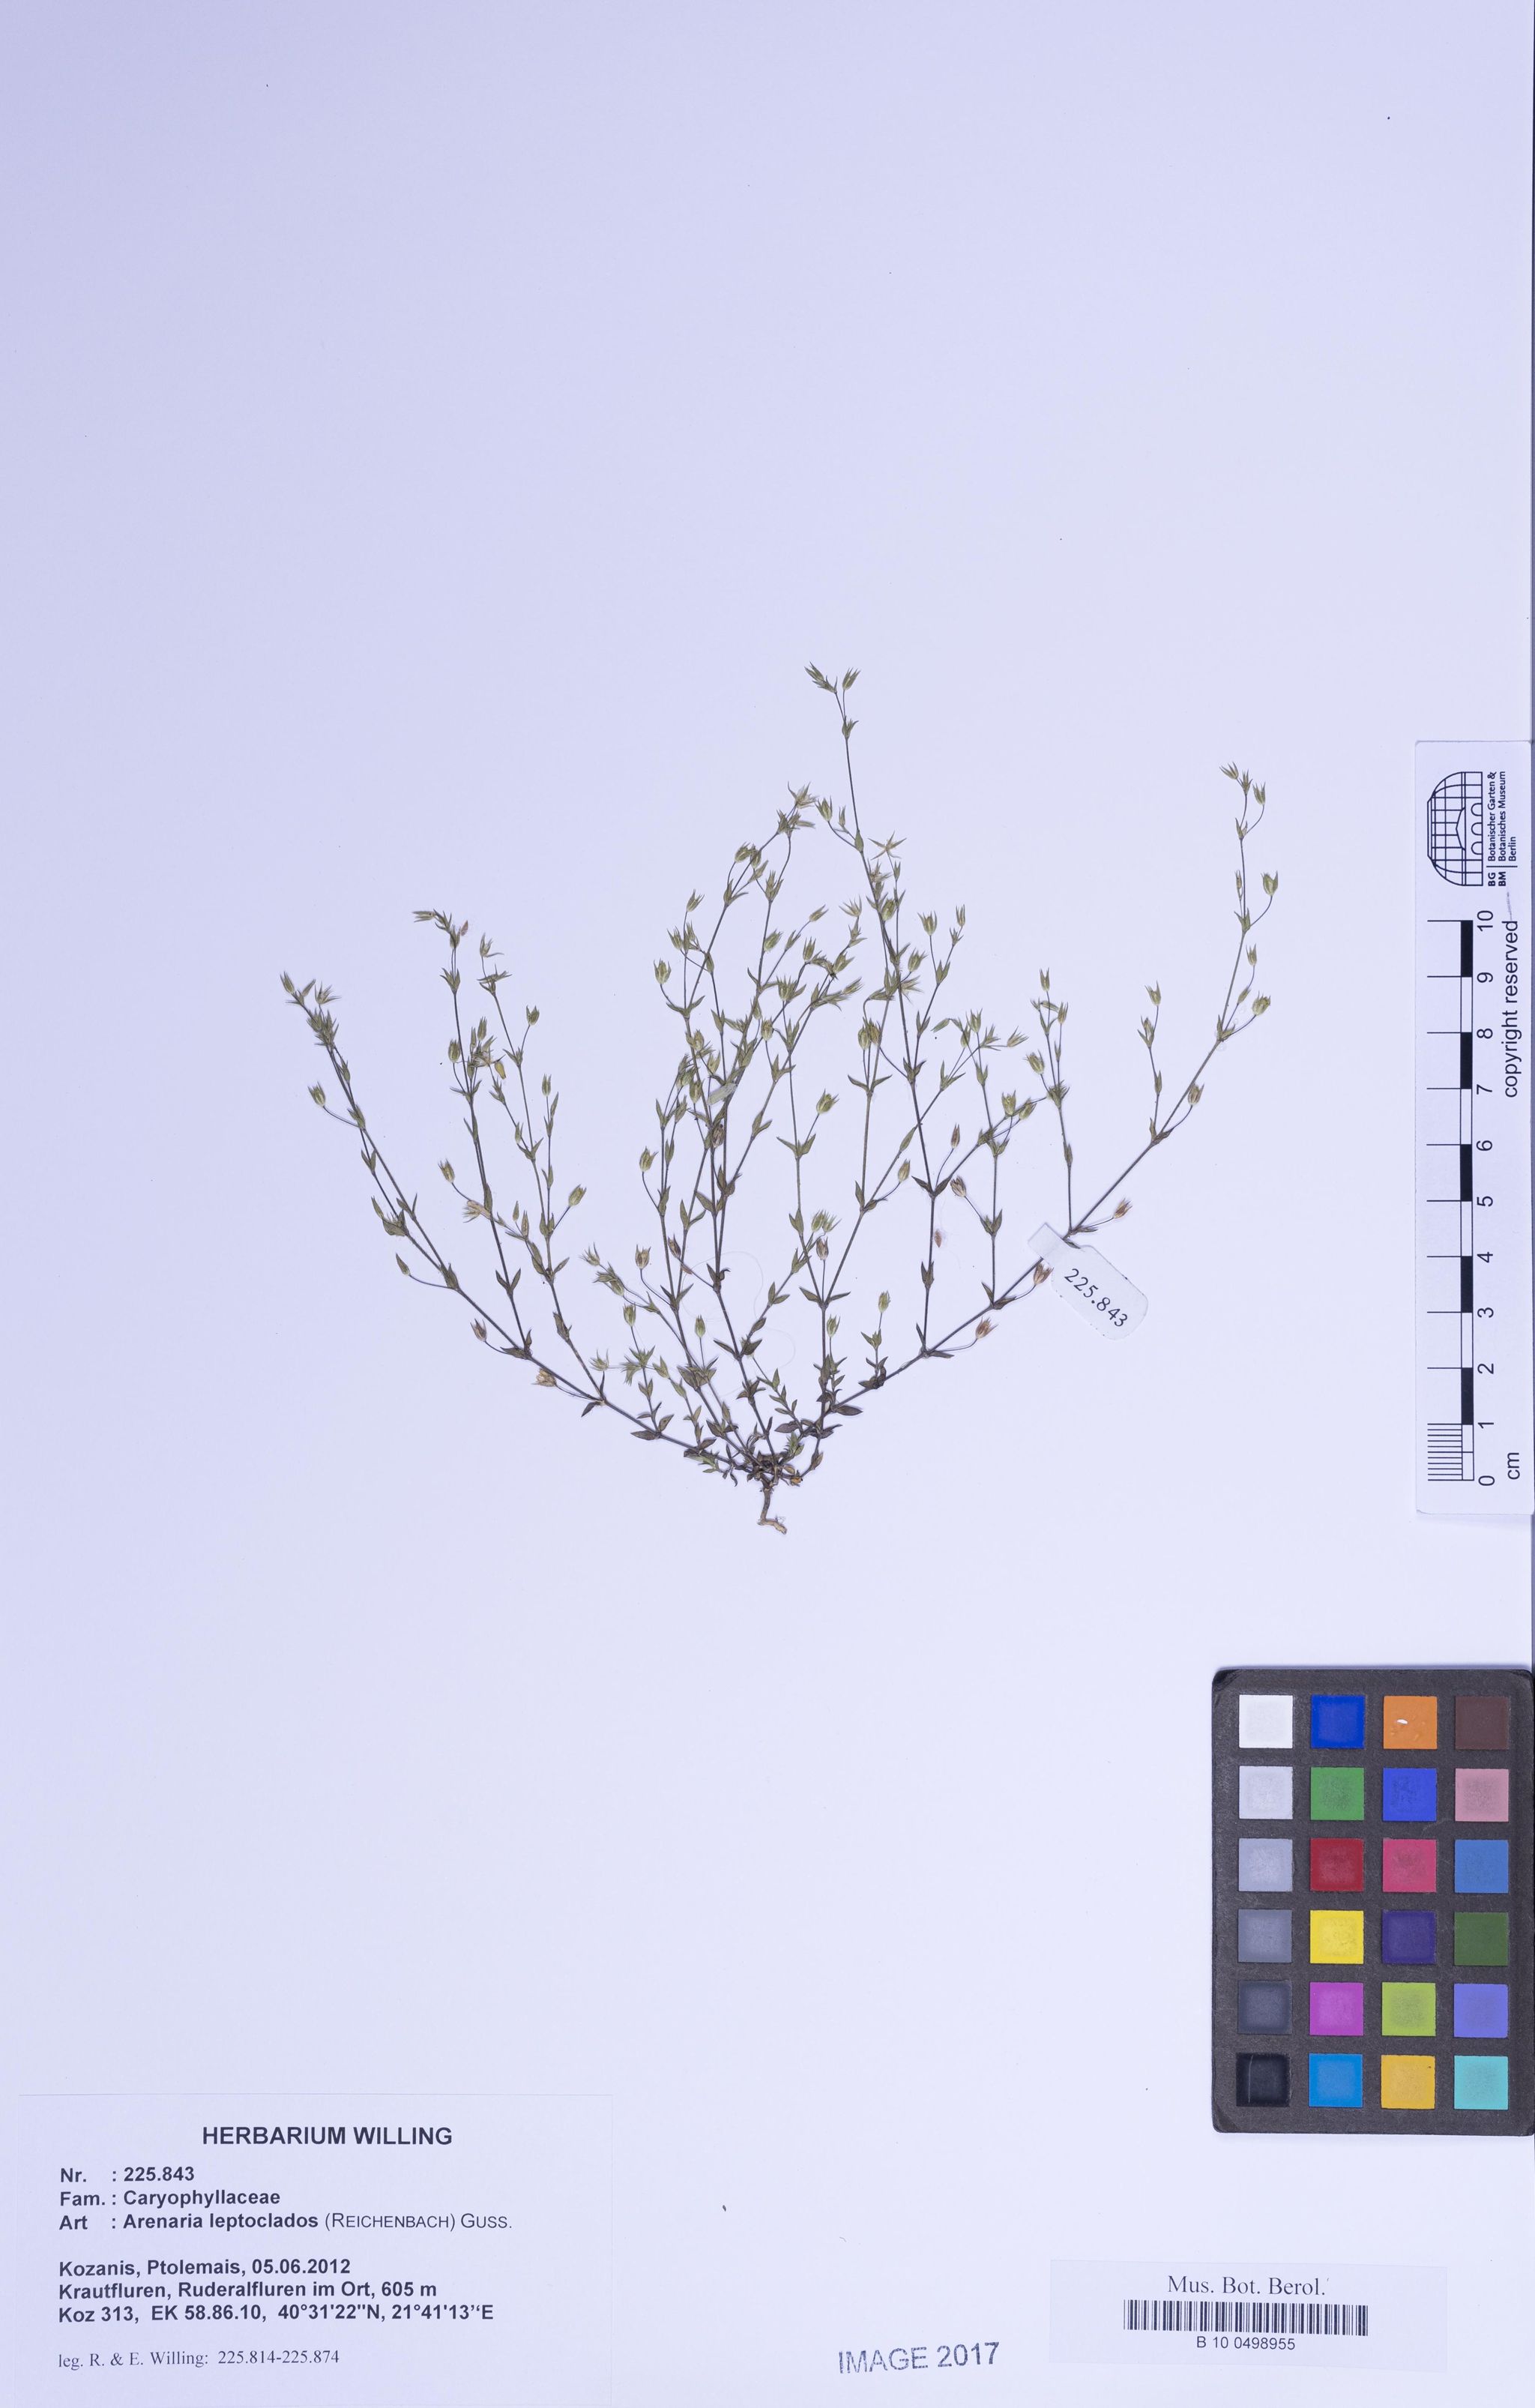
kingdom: Plantae
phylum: Tracheophyta
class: Magnoliopsida
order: Caryophyllales
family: Caryophyllaceae
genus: Arenaria
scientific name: Arenaria leptoclados
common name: Thyme-leaved sandwort
